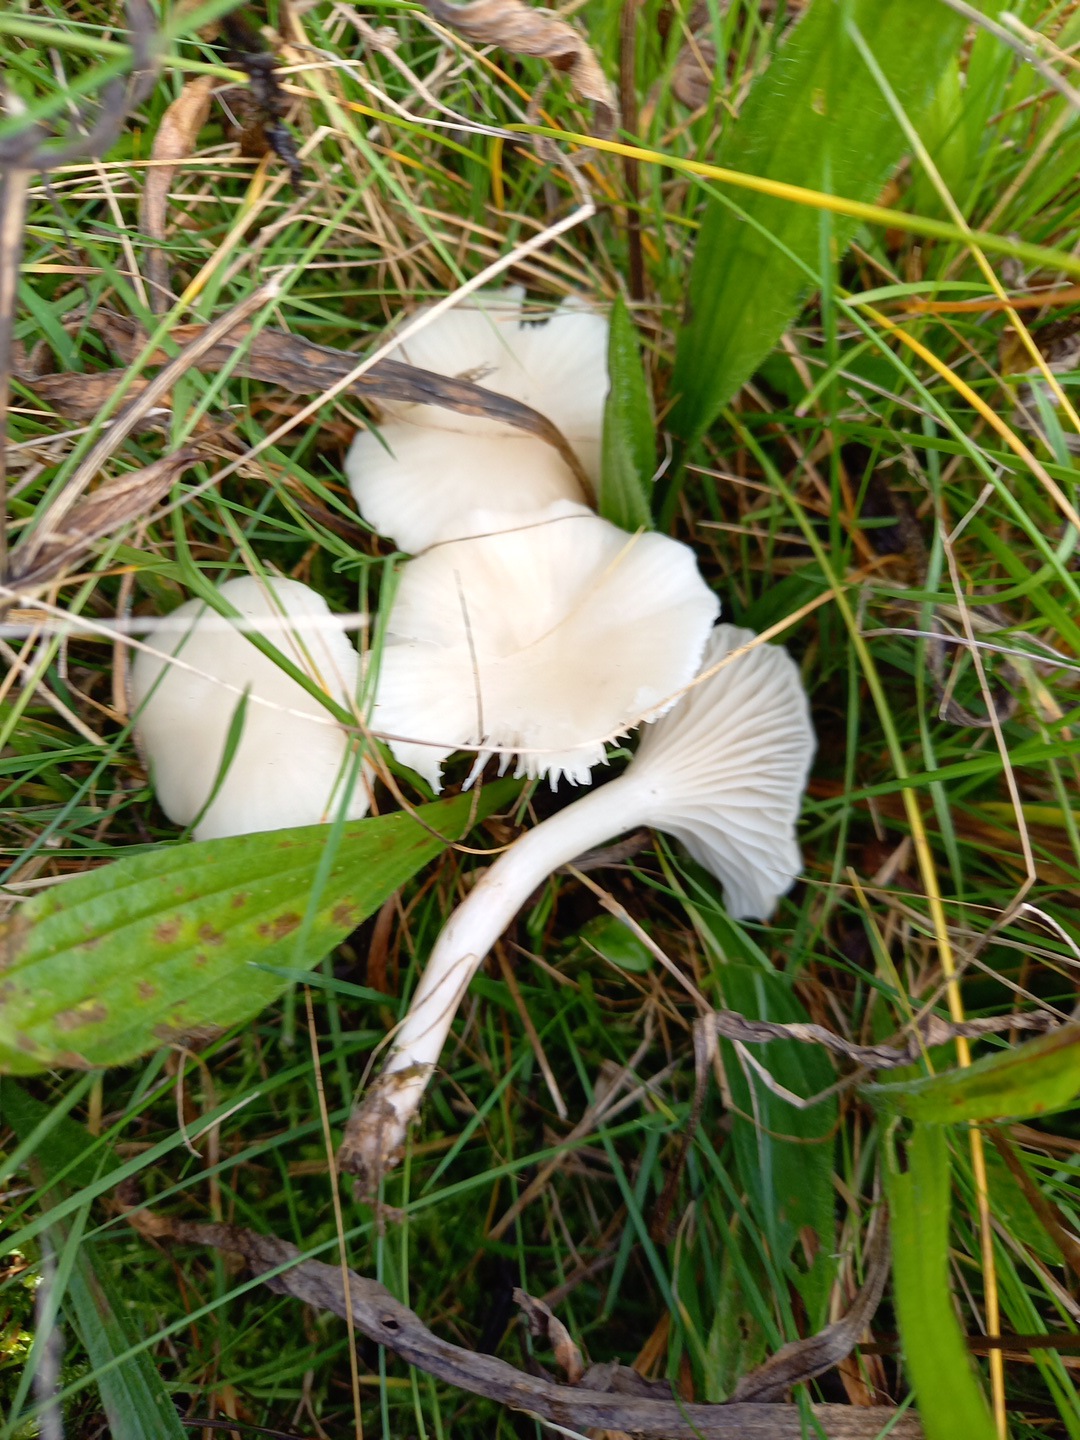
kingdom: Fungi
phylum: Basidiomycota
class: Agaricomycetes
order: Agaricales
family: Hygrophoraceae
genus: Cuphophyllus
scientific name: Cuphophyllus virgineus
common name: snehvid vokshat
